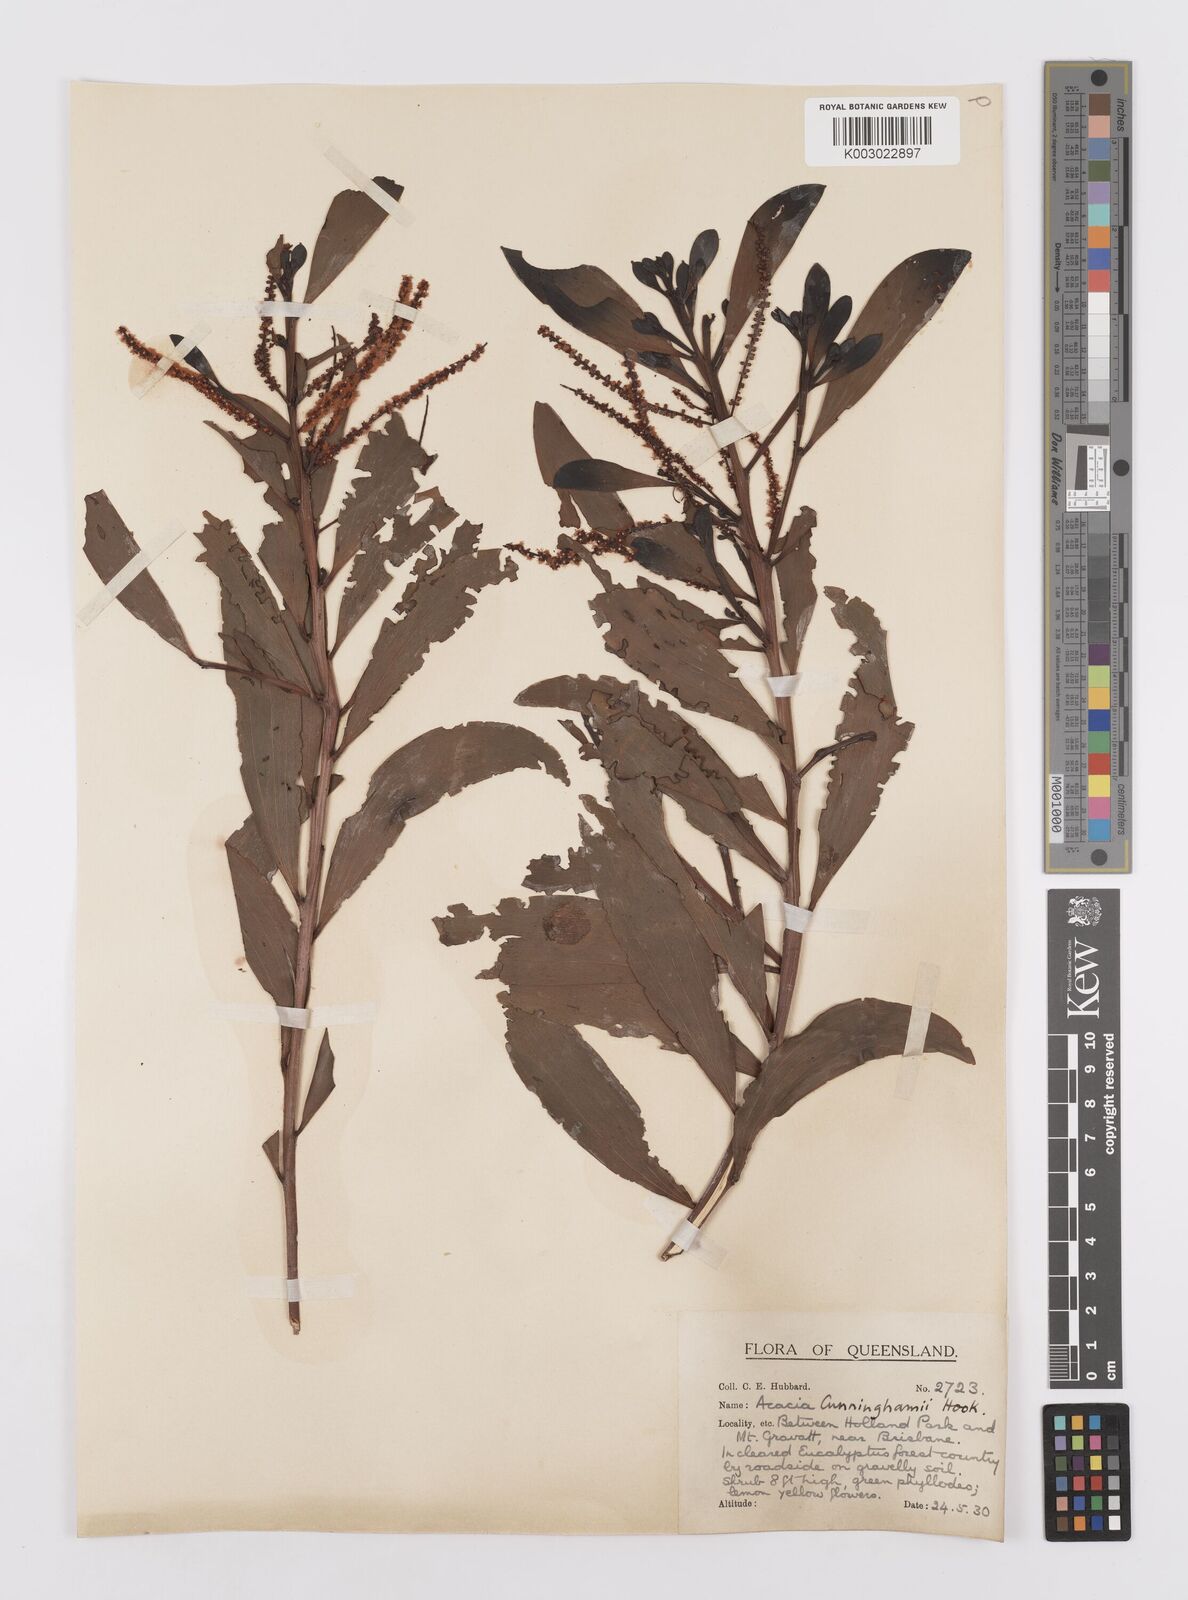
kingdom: Plantae
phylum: Tracheophyta
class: Magnoliopsida
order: Fabales
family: Fabaceae
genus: Acacia
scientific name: Acacia longispicata
